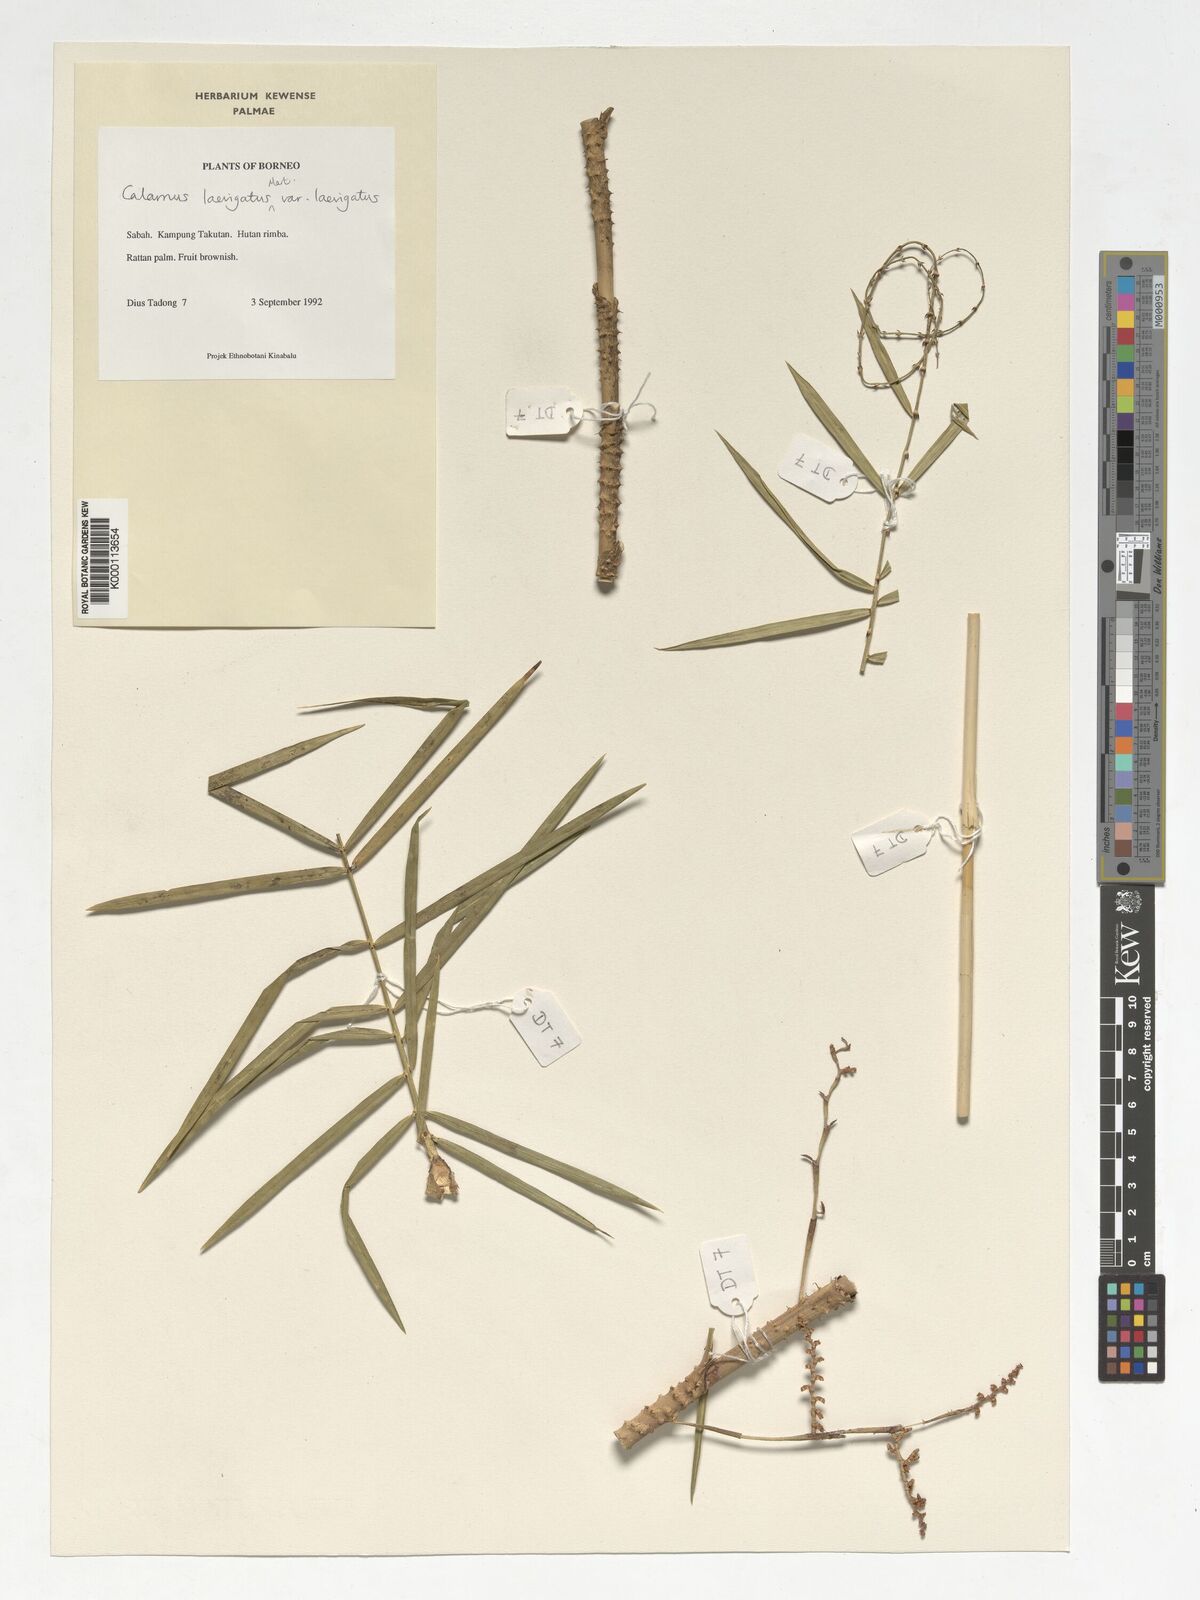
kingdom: Plantae
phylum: Tracheophyta
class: Liliopsida
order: Arecales
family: Arecaceae
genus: Calamus
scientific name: Calamus
